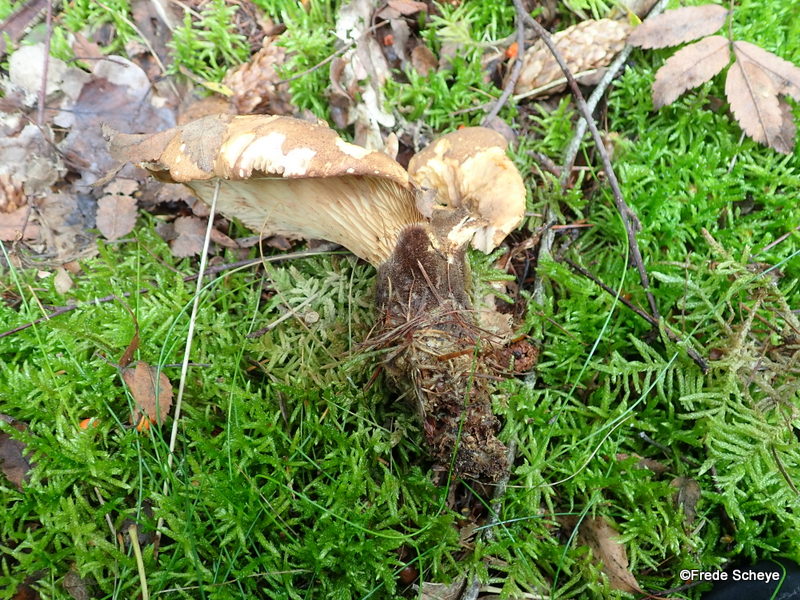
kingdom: Fungi
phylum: Basidiomycota
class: Agaricomycetes
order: Boletales
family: Tapinellaceae
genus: Tapinella
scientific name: Tapinella atrotomentosa
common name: sortfiltet viftesvamp
